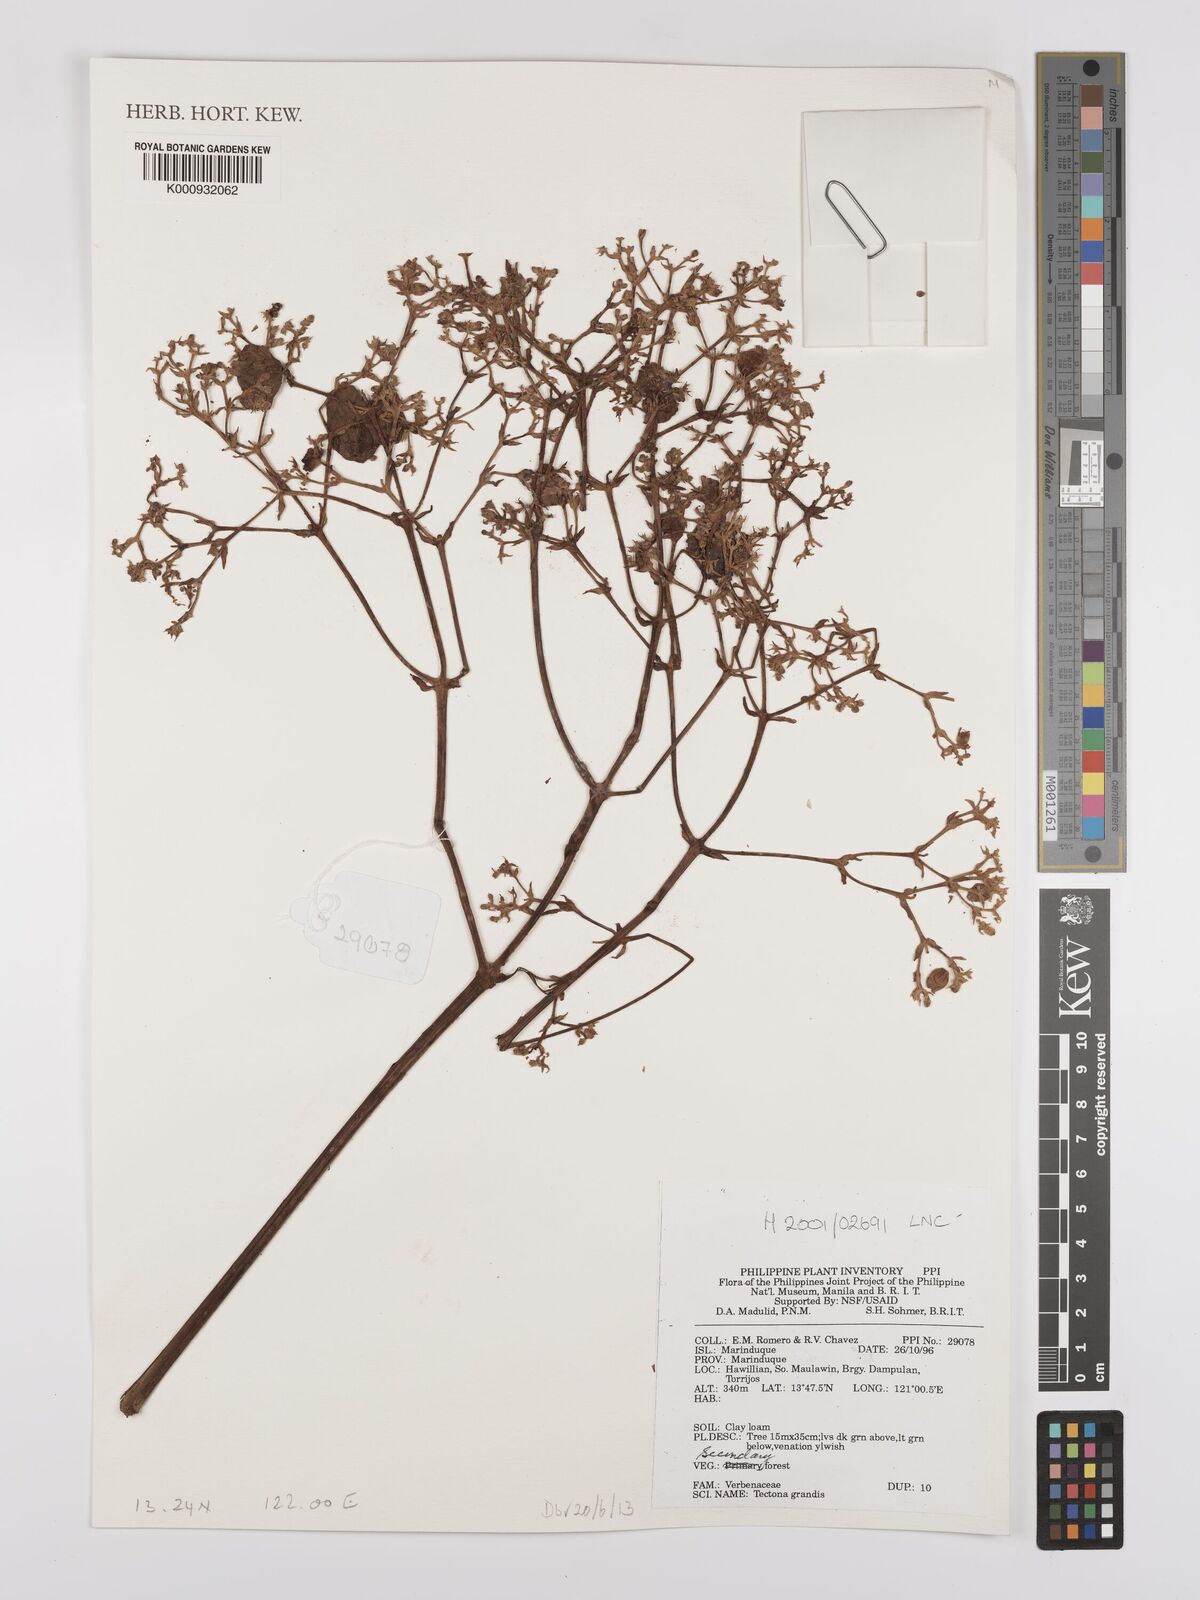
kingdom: Plantae
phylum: Tracheophyta
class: Magnoliopsida
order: Lamiales
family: Lamiaceae
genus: Tectona
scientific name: Tectona grandis
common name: Teak
